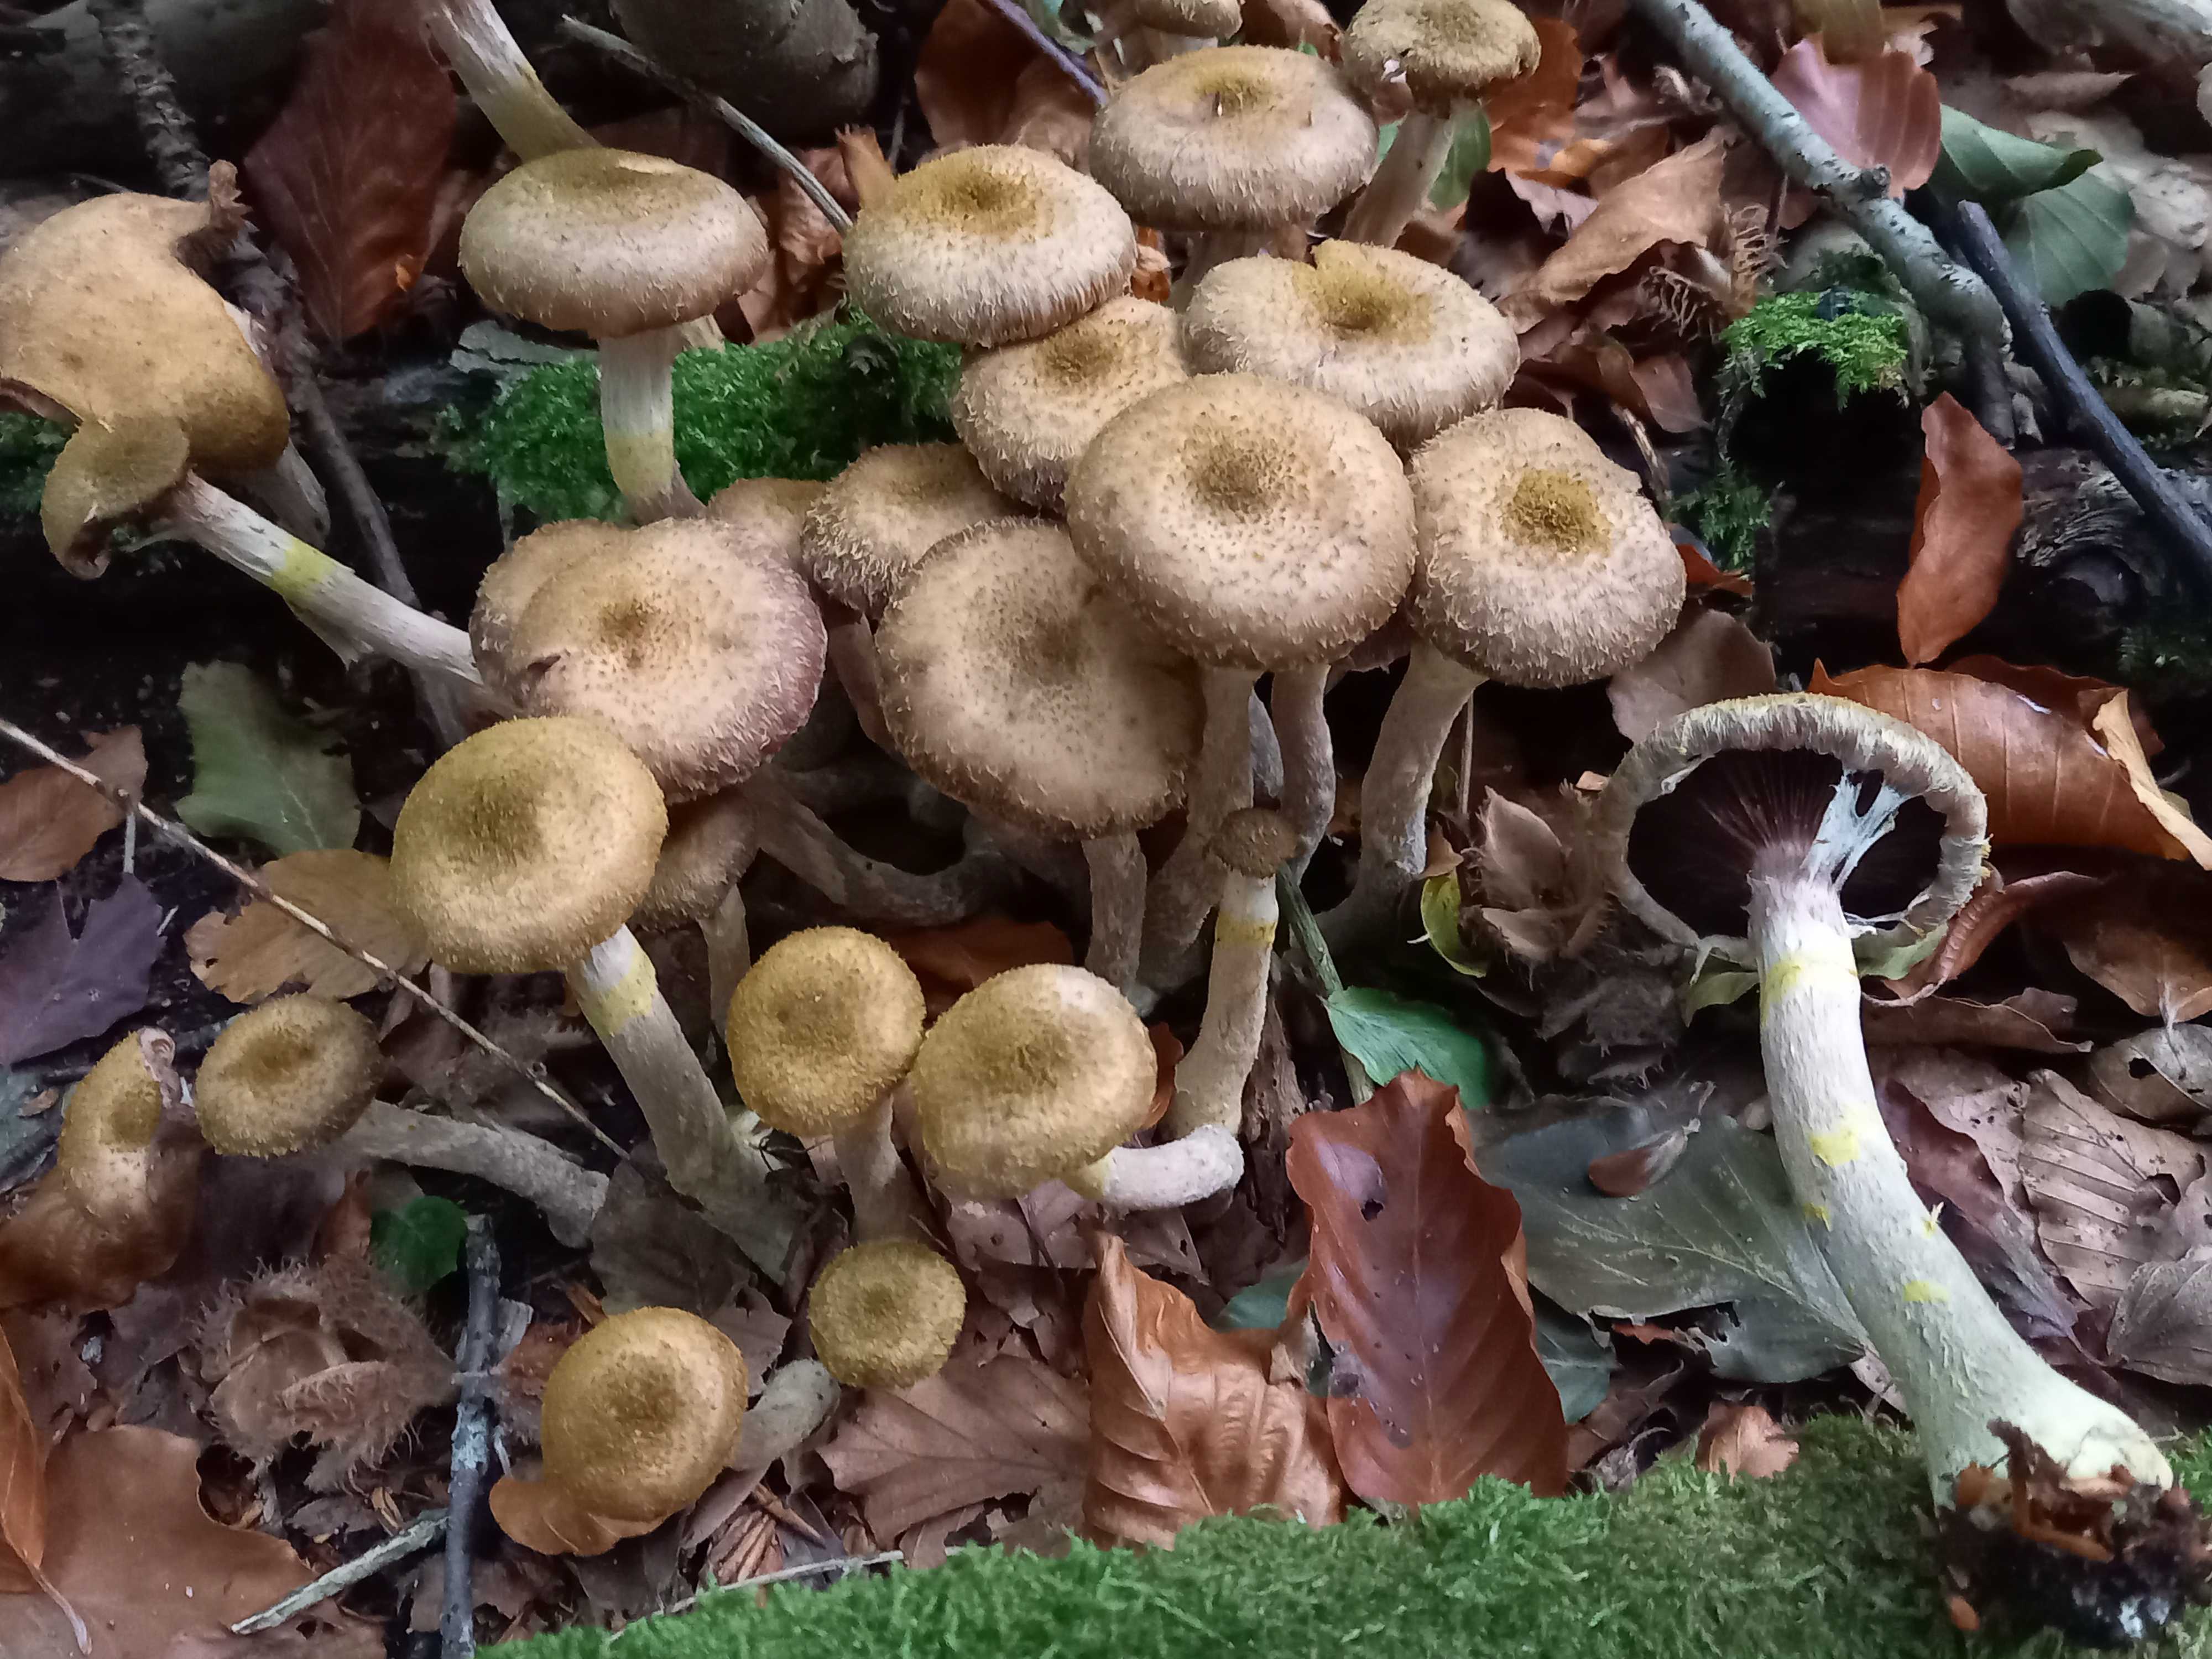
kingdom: Fungi
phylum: Basidiomycota
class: Agaricomycetes
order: Agaricales
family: Physalacriaceae
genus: Armillaria
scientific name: Armillaria lutea
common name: køllestokket honningsvamp
